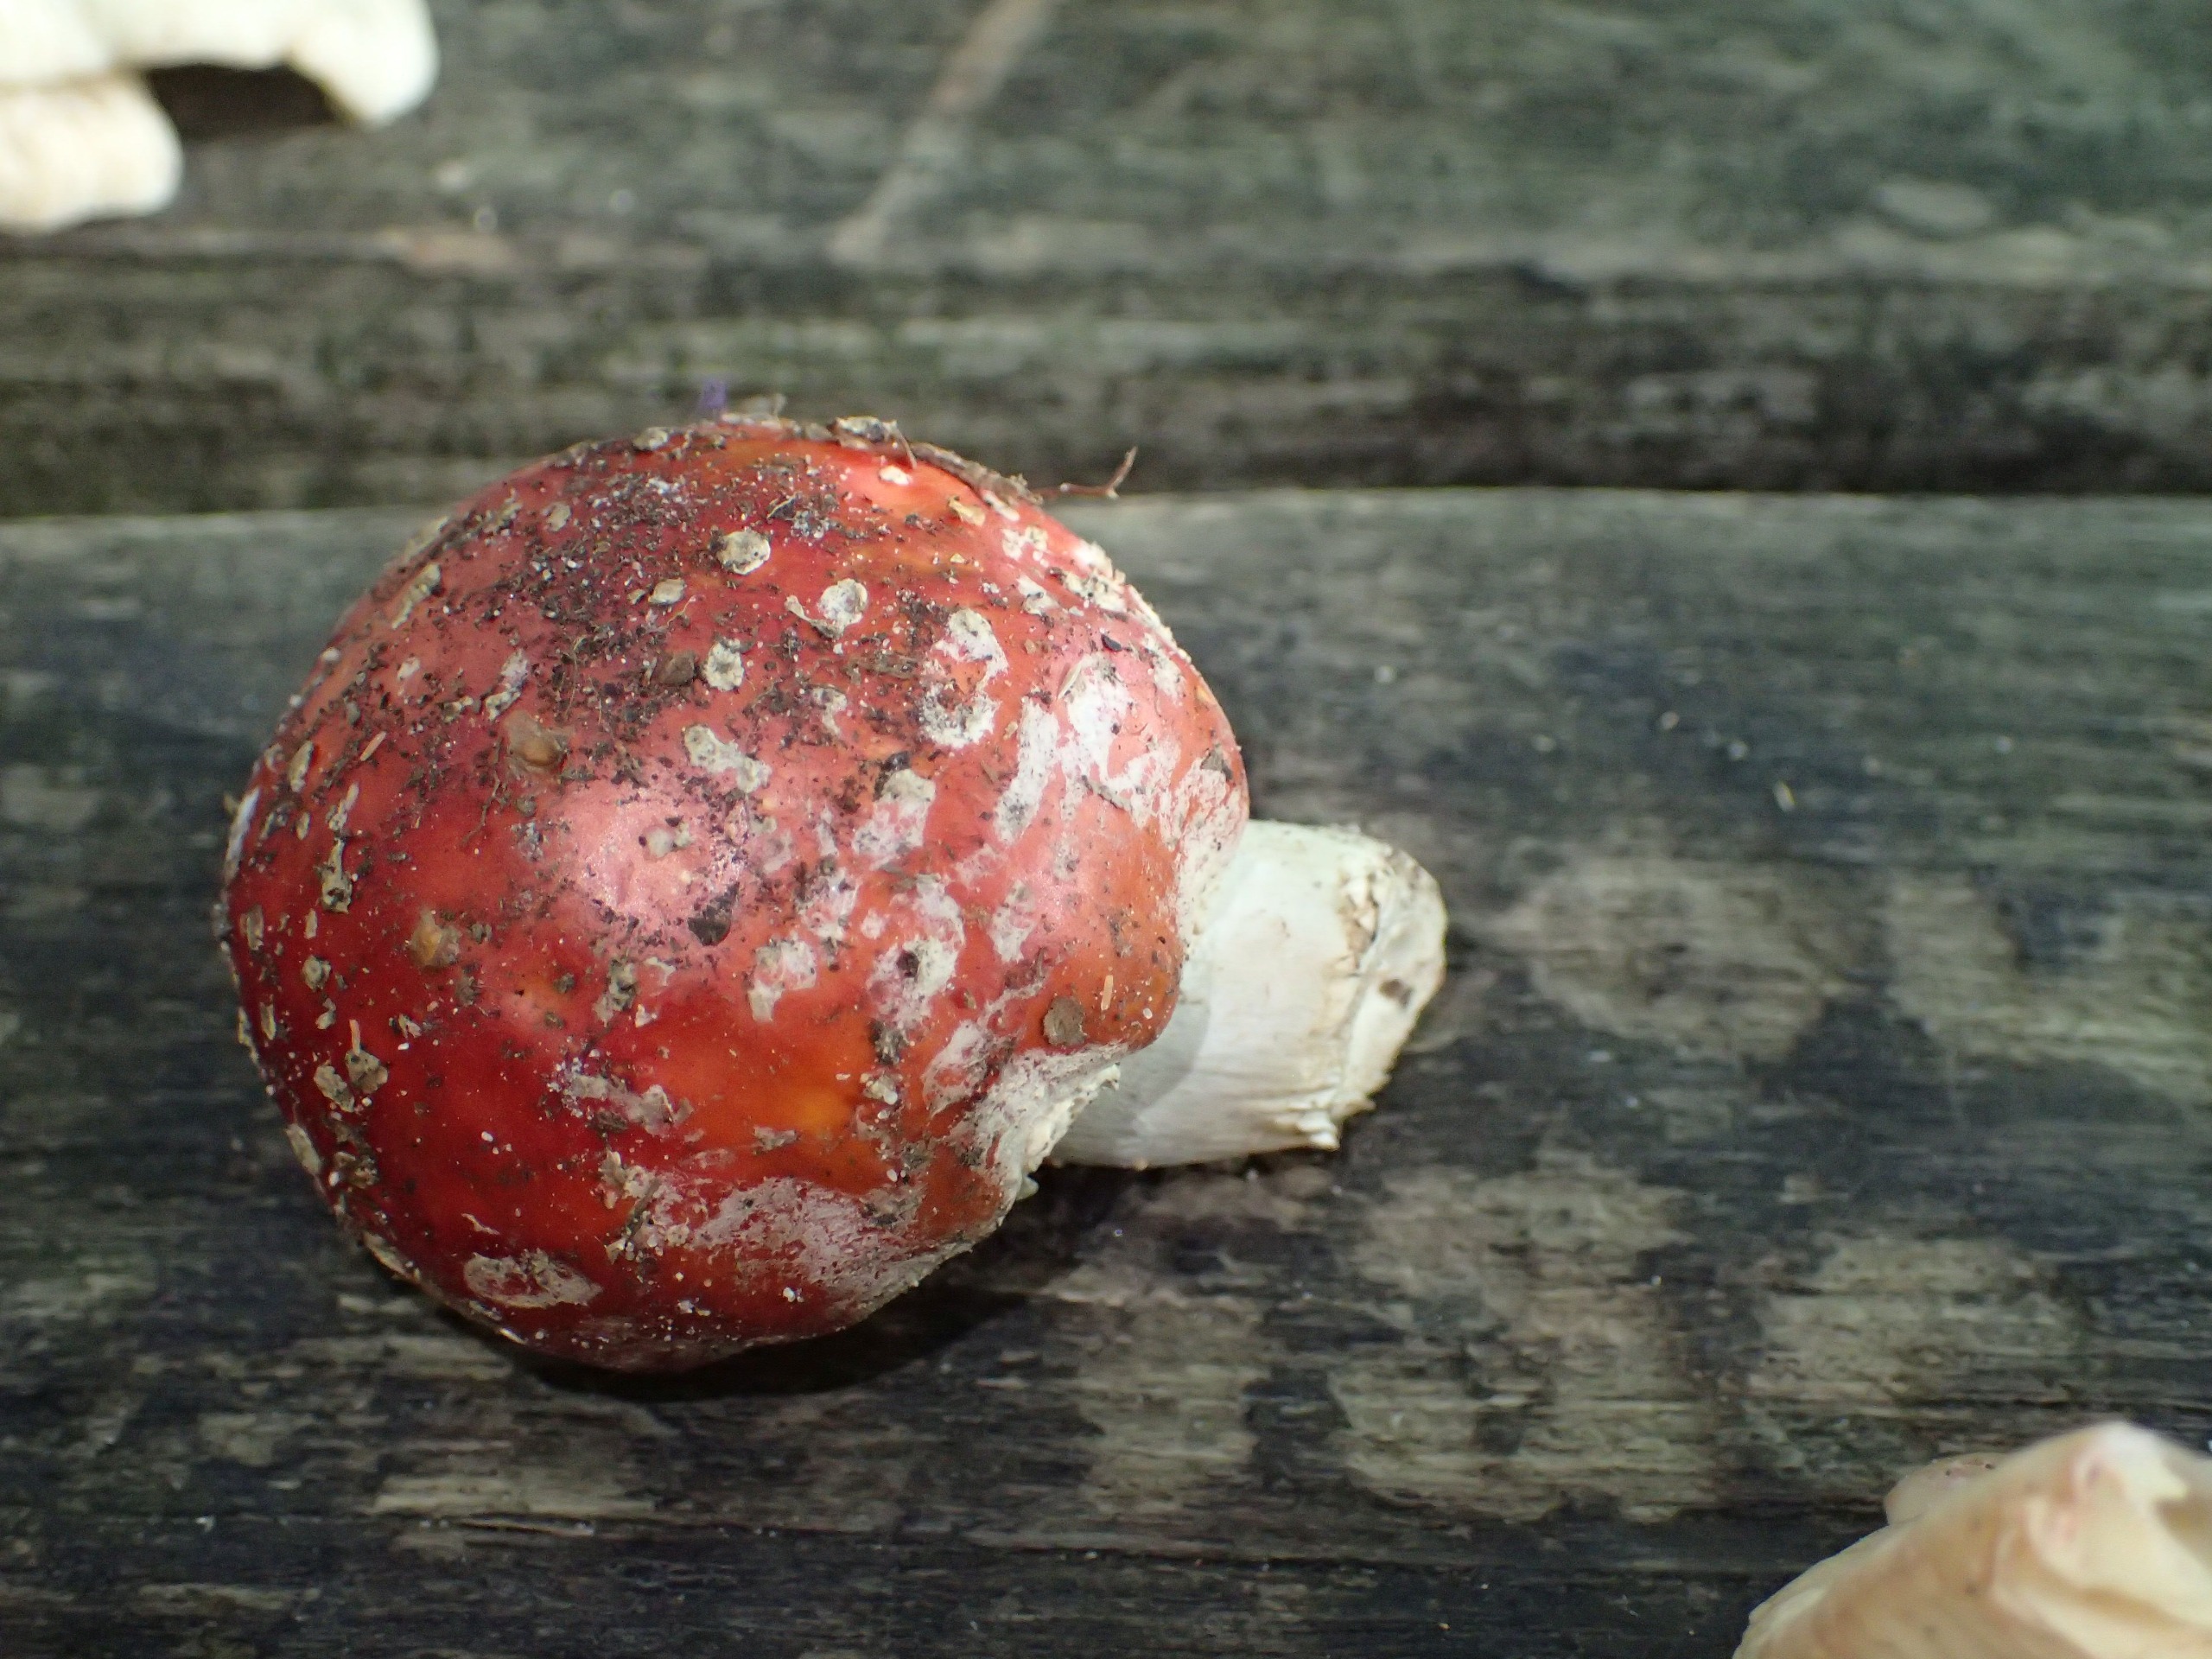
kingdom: Fungi
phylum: Basidiomycota
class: Agaricomycetes
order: Agaricales
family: Amanitaceae
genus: Amanita
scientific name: Amanita muscaria
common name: Rød fluesvamp
